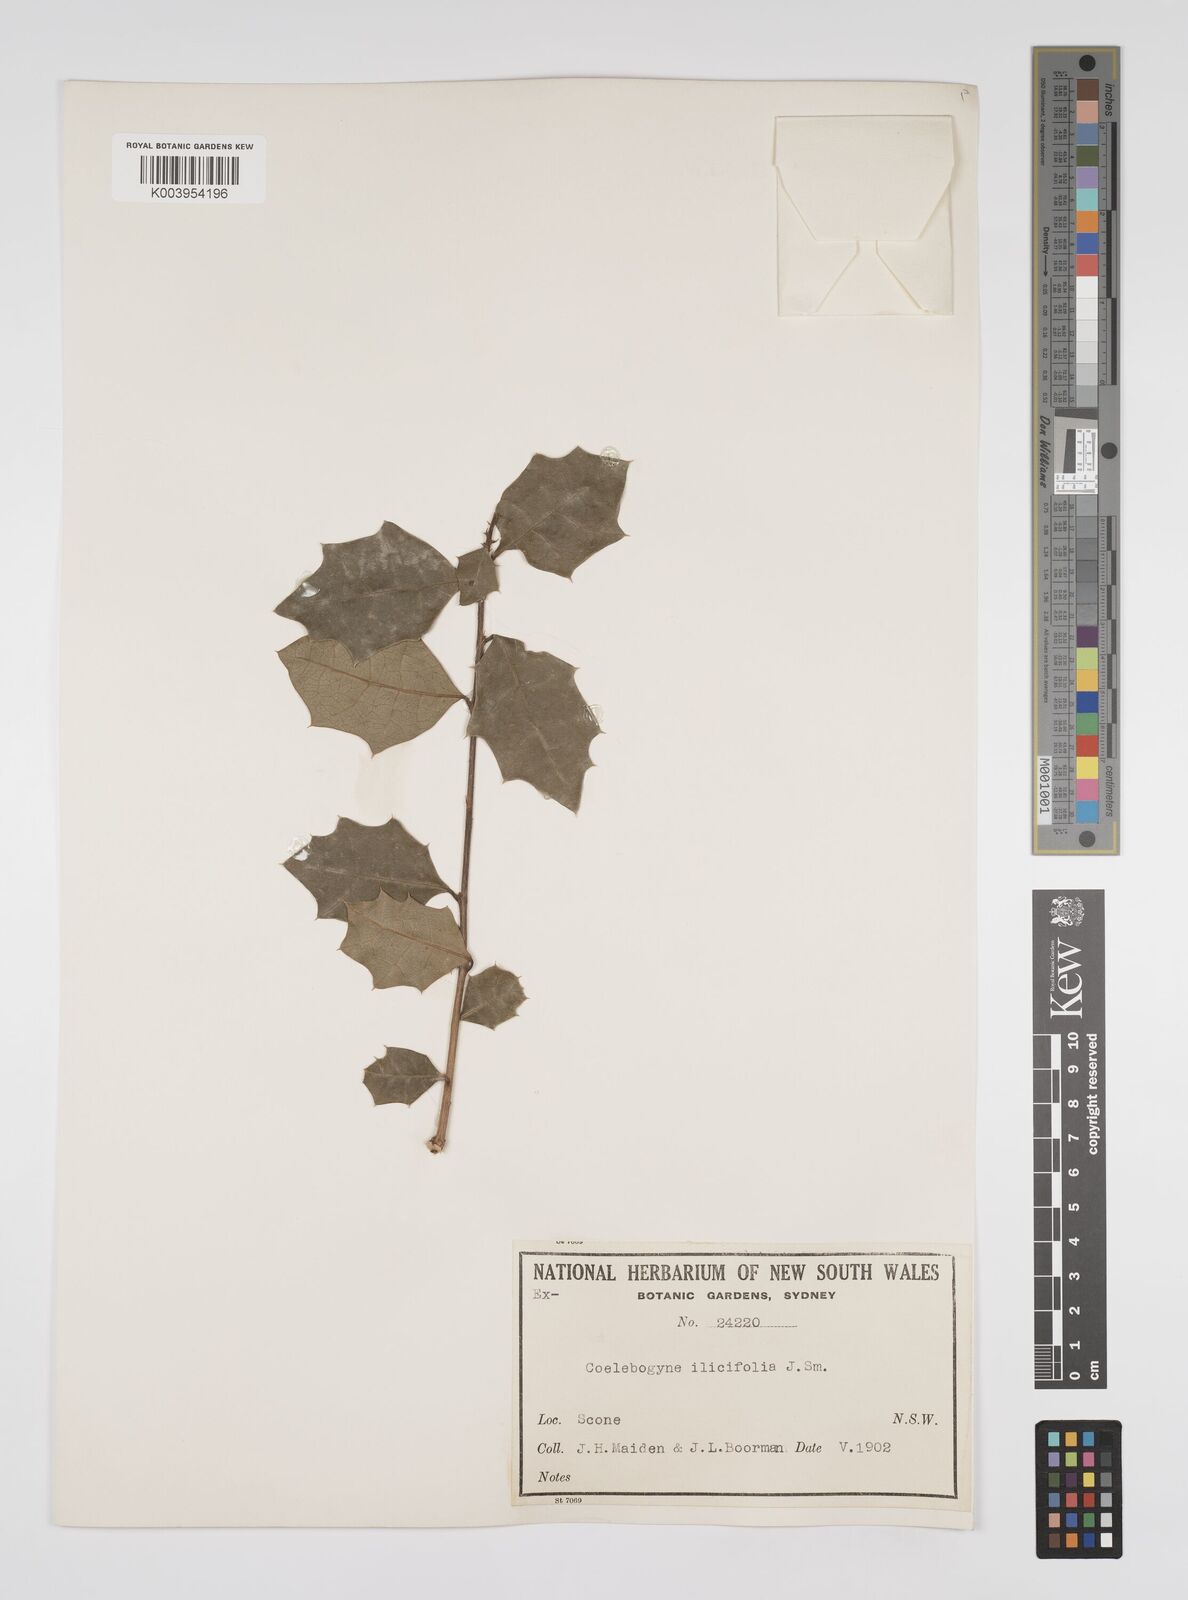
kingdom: Plantae
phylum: Tracheophyta
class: Magnoliopsida
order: Malpighiales
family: Euphorbiaceae
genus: Alchornea
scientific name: Alchornea ilicifolia
